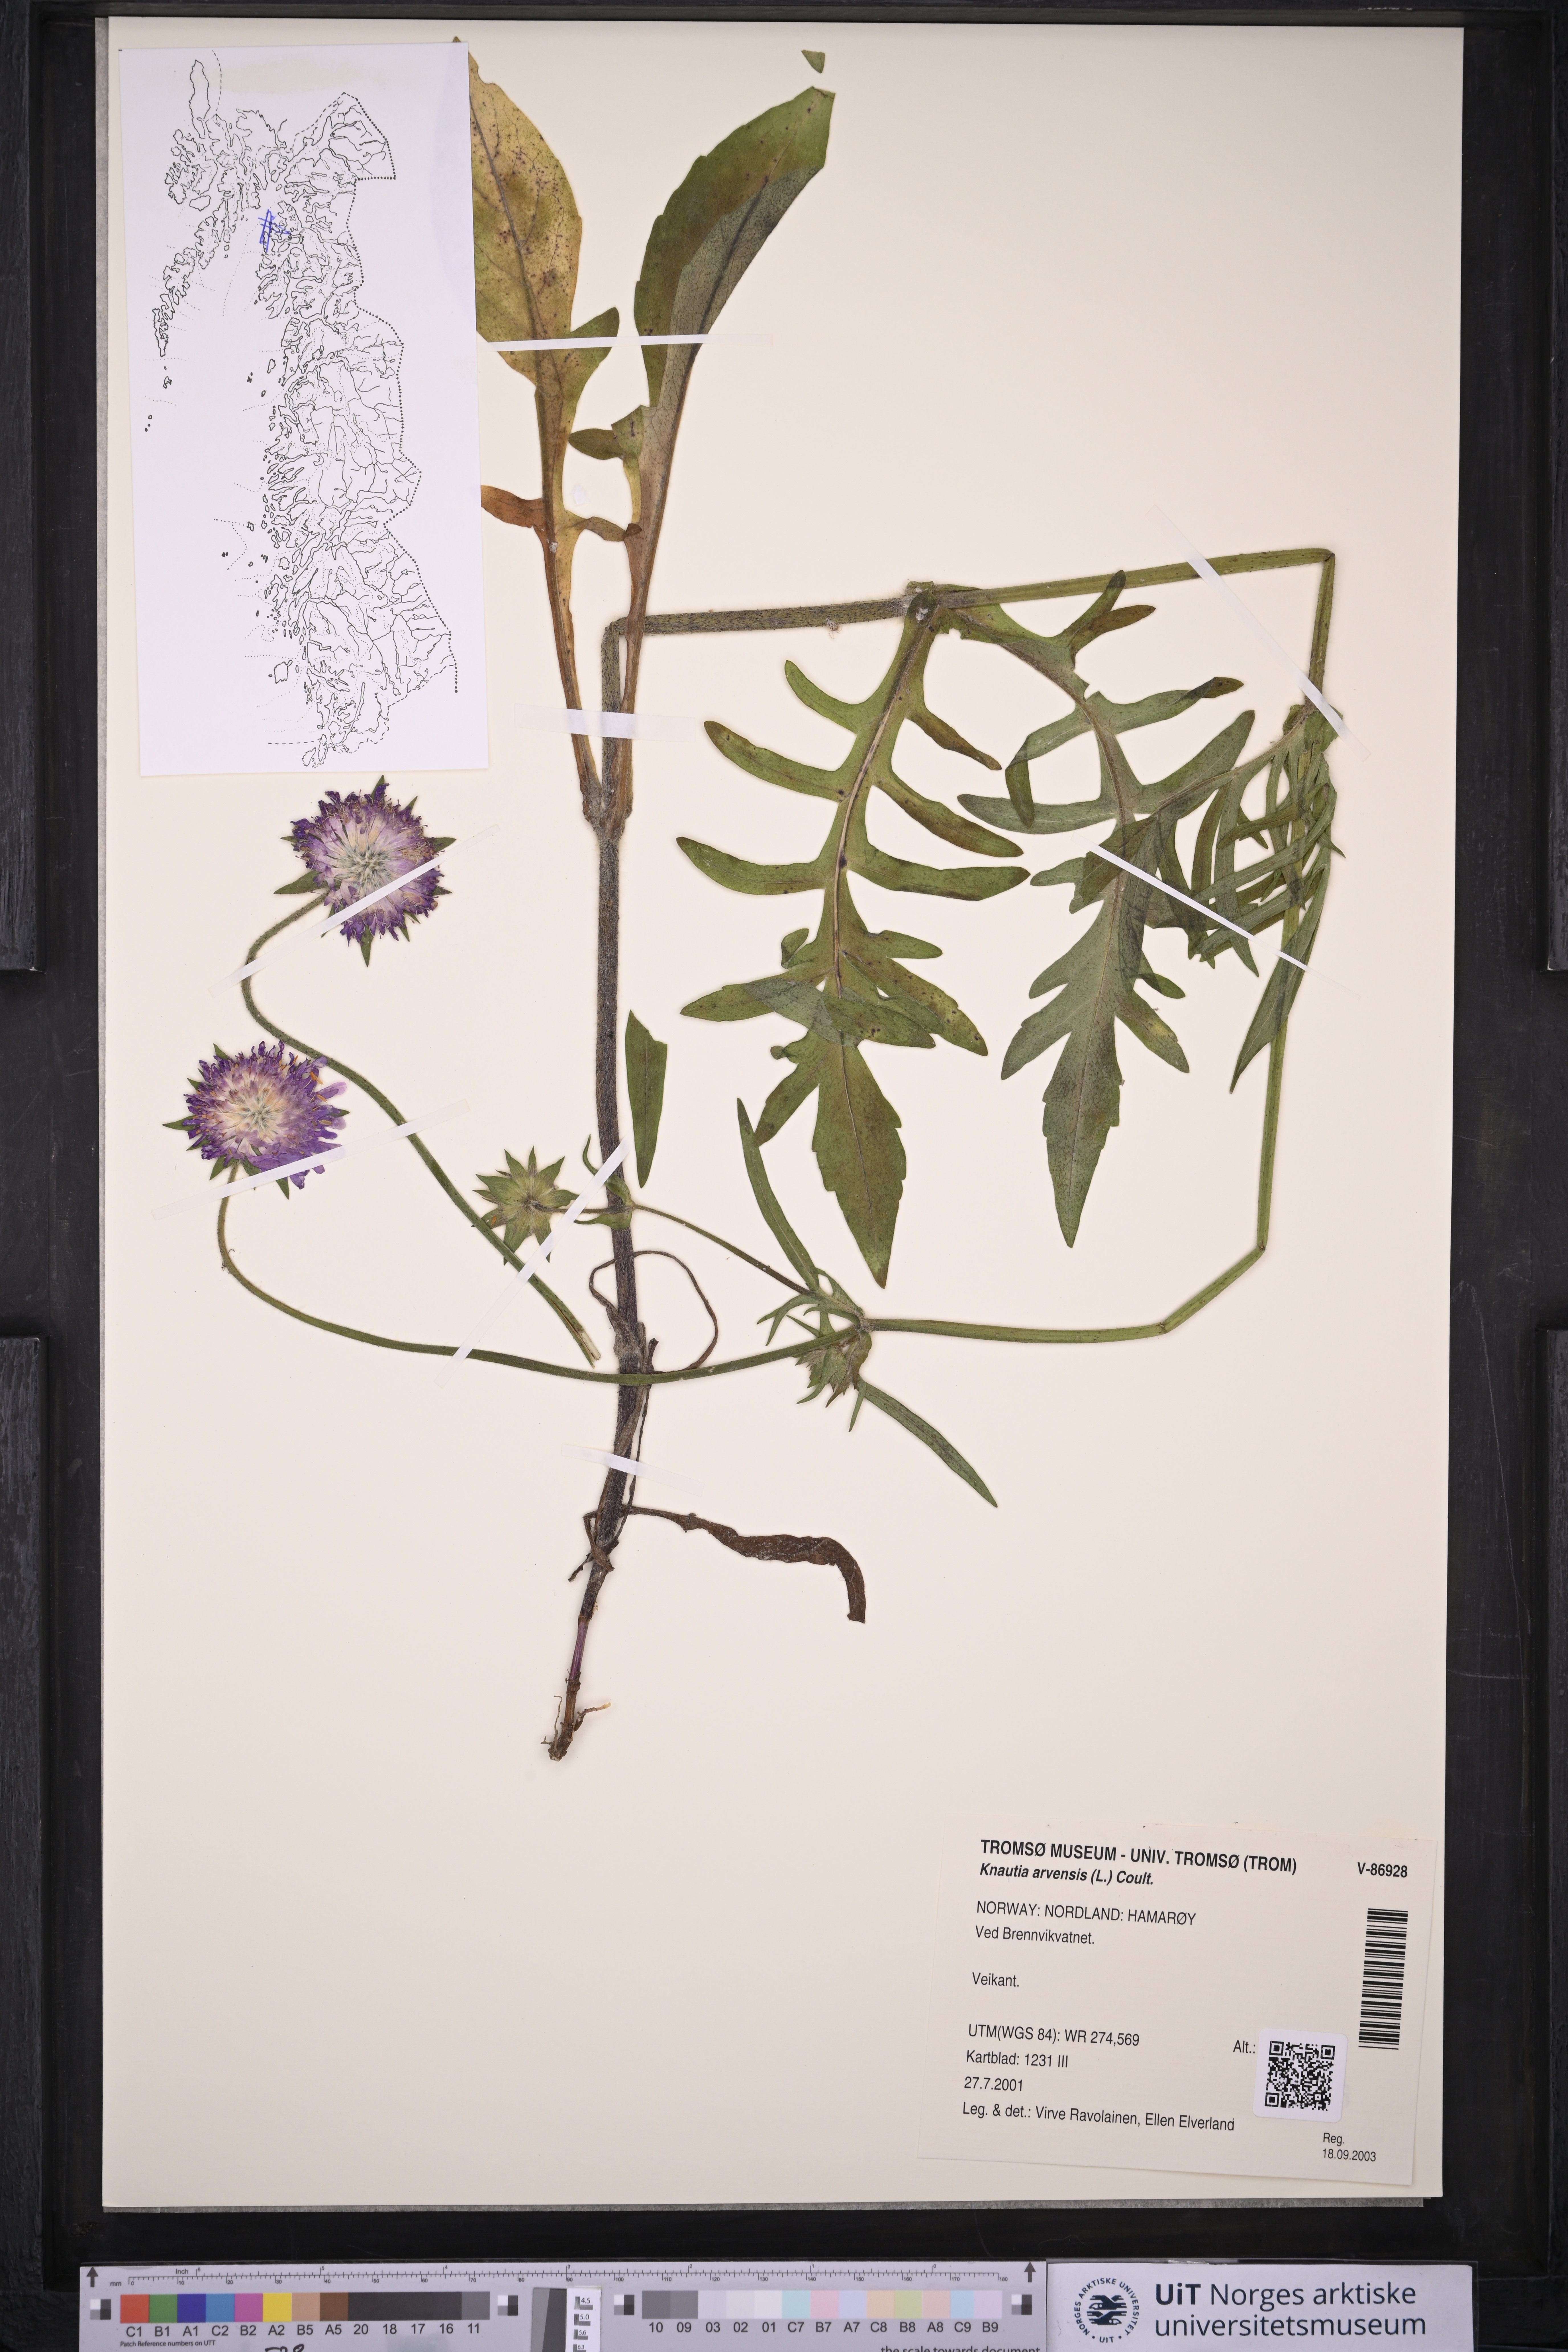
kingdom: Plantae
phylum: Tracheophyta
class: Magnoliopsida
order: Dipsacales
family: Caprifoliaceae
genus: Knautia
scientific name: Knautia arvensis
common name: Field scabiosa
